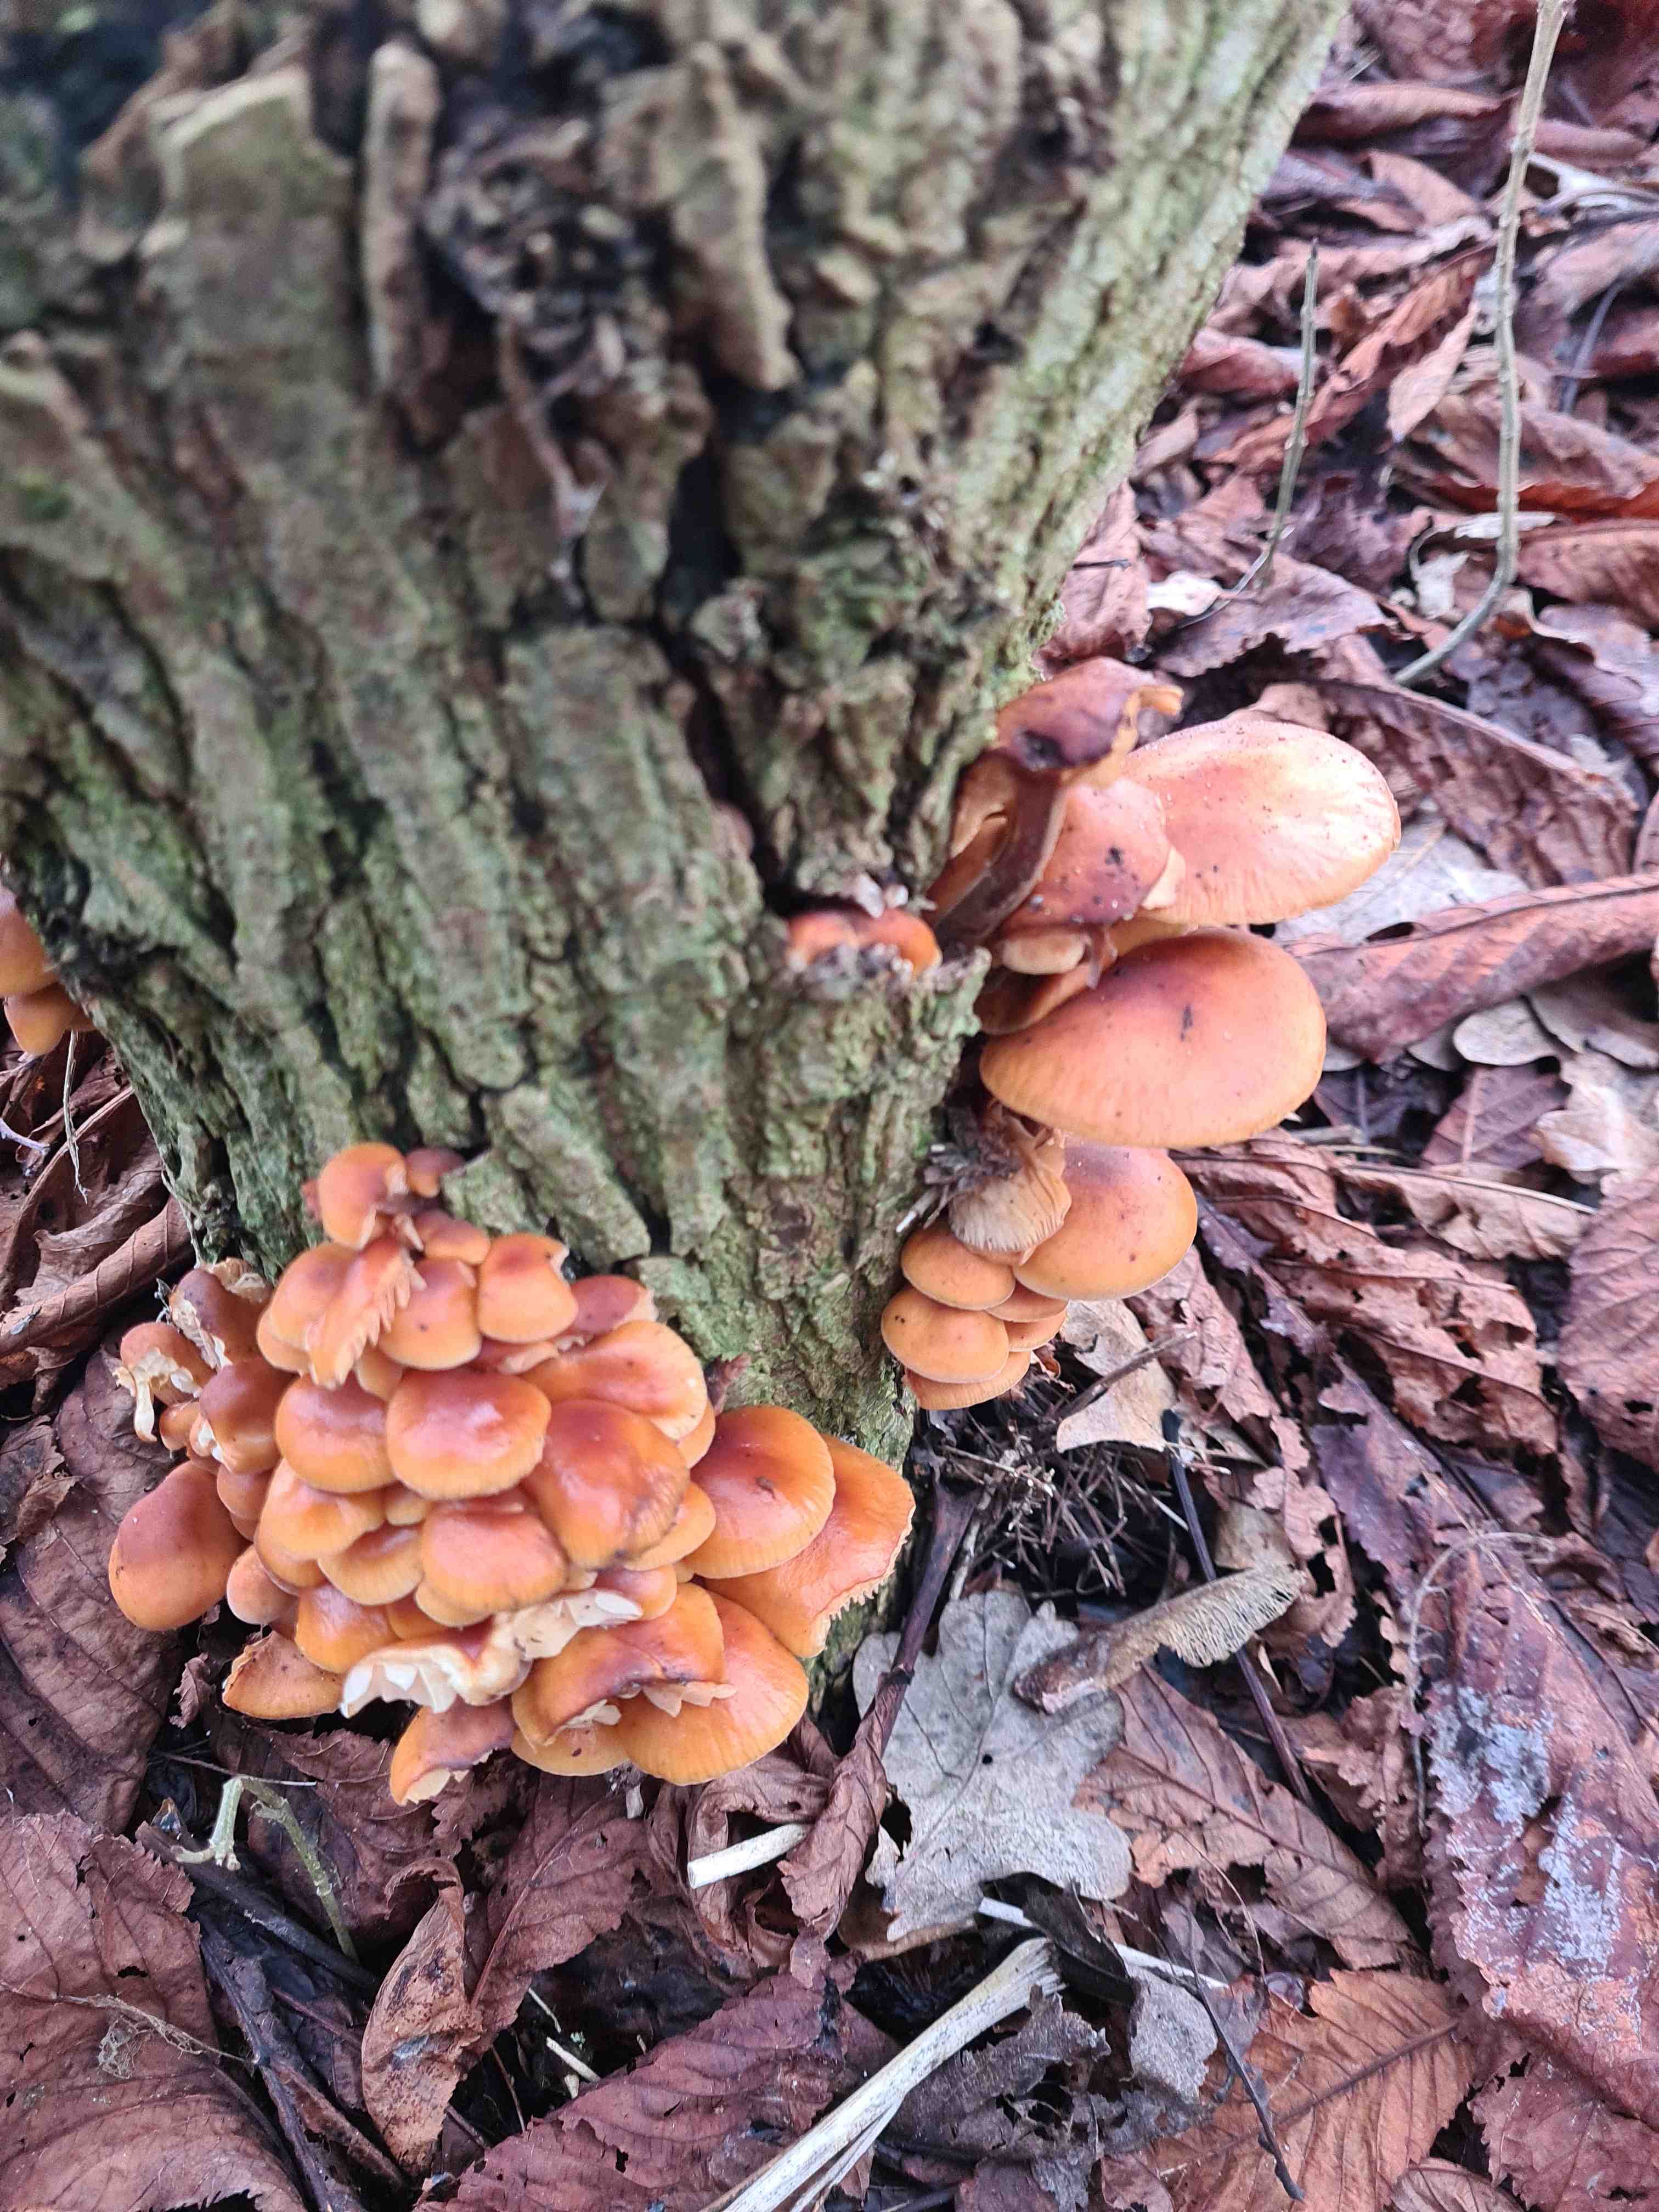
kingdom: Fungi
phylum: Basidiomycota
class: Agaricomycetes
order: Agaricales
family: Physalacriaceae
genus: Flammulina
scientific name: Flammulina
